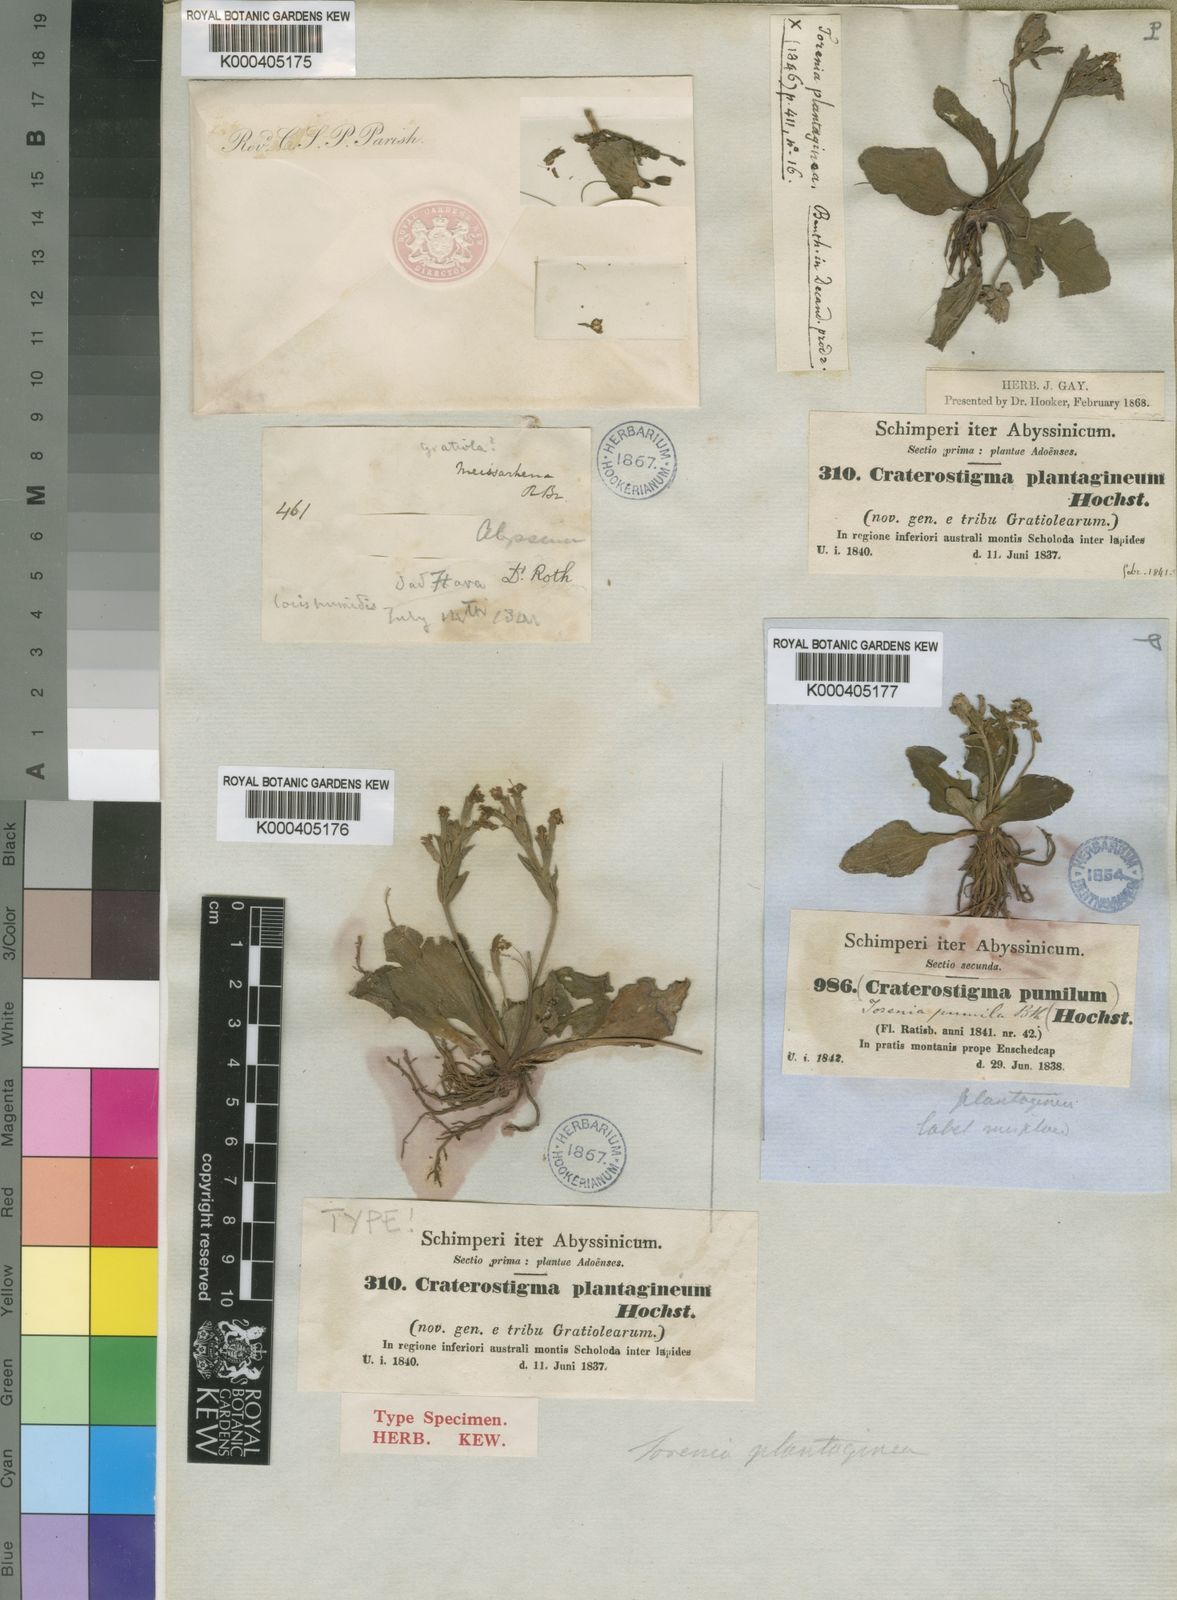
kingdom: Plantae
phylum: Tracheophyta
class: Magnoliopsida
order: Lamiales
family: Linderniaceae
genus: Craterostigma
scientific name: Craterostigma pumilum
